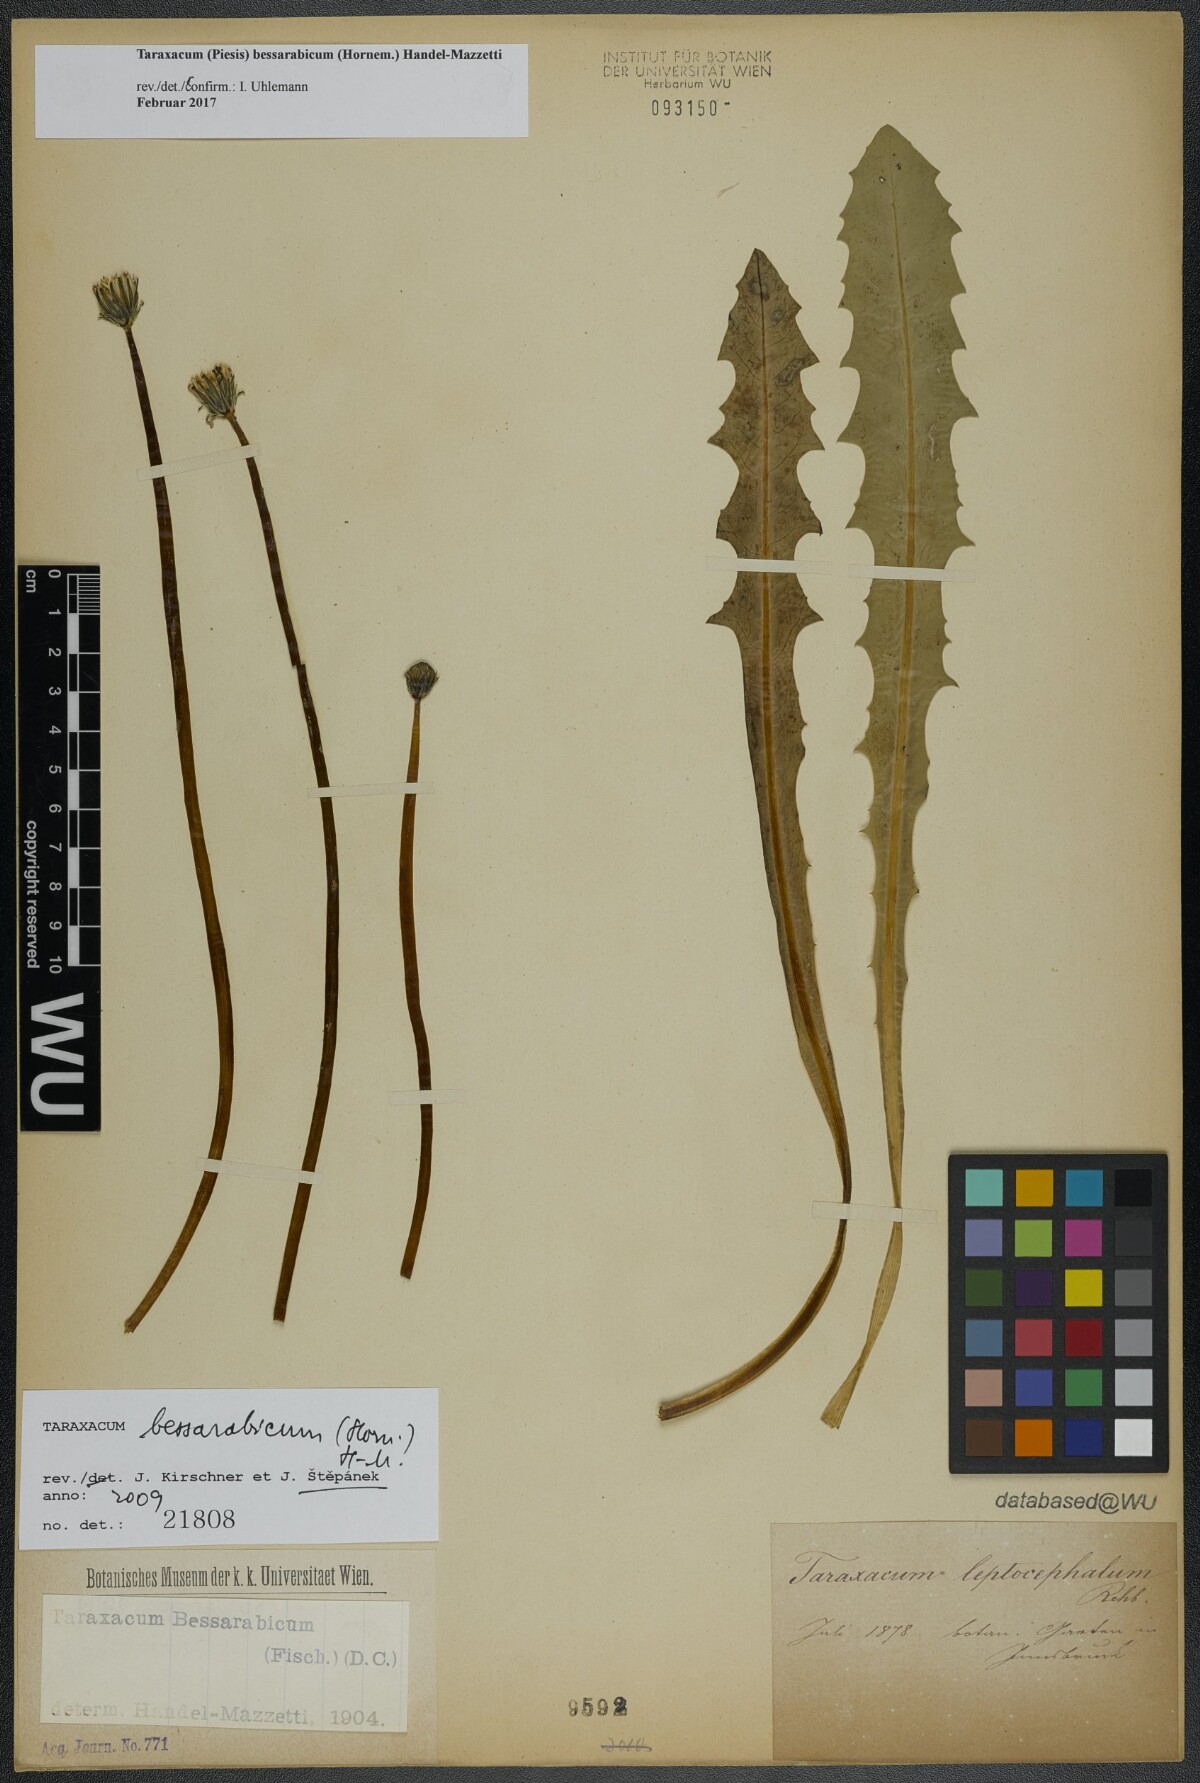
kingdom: Plantae
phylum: Tracheophyta
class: Magnoliopsida
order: Asterales
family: Asteraceae
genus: Taraxacum
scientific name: Taraxacum bessarabicum
